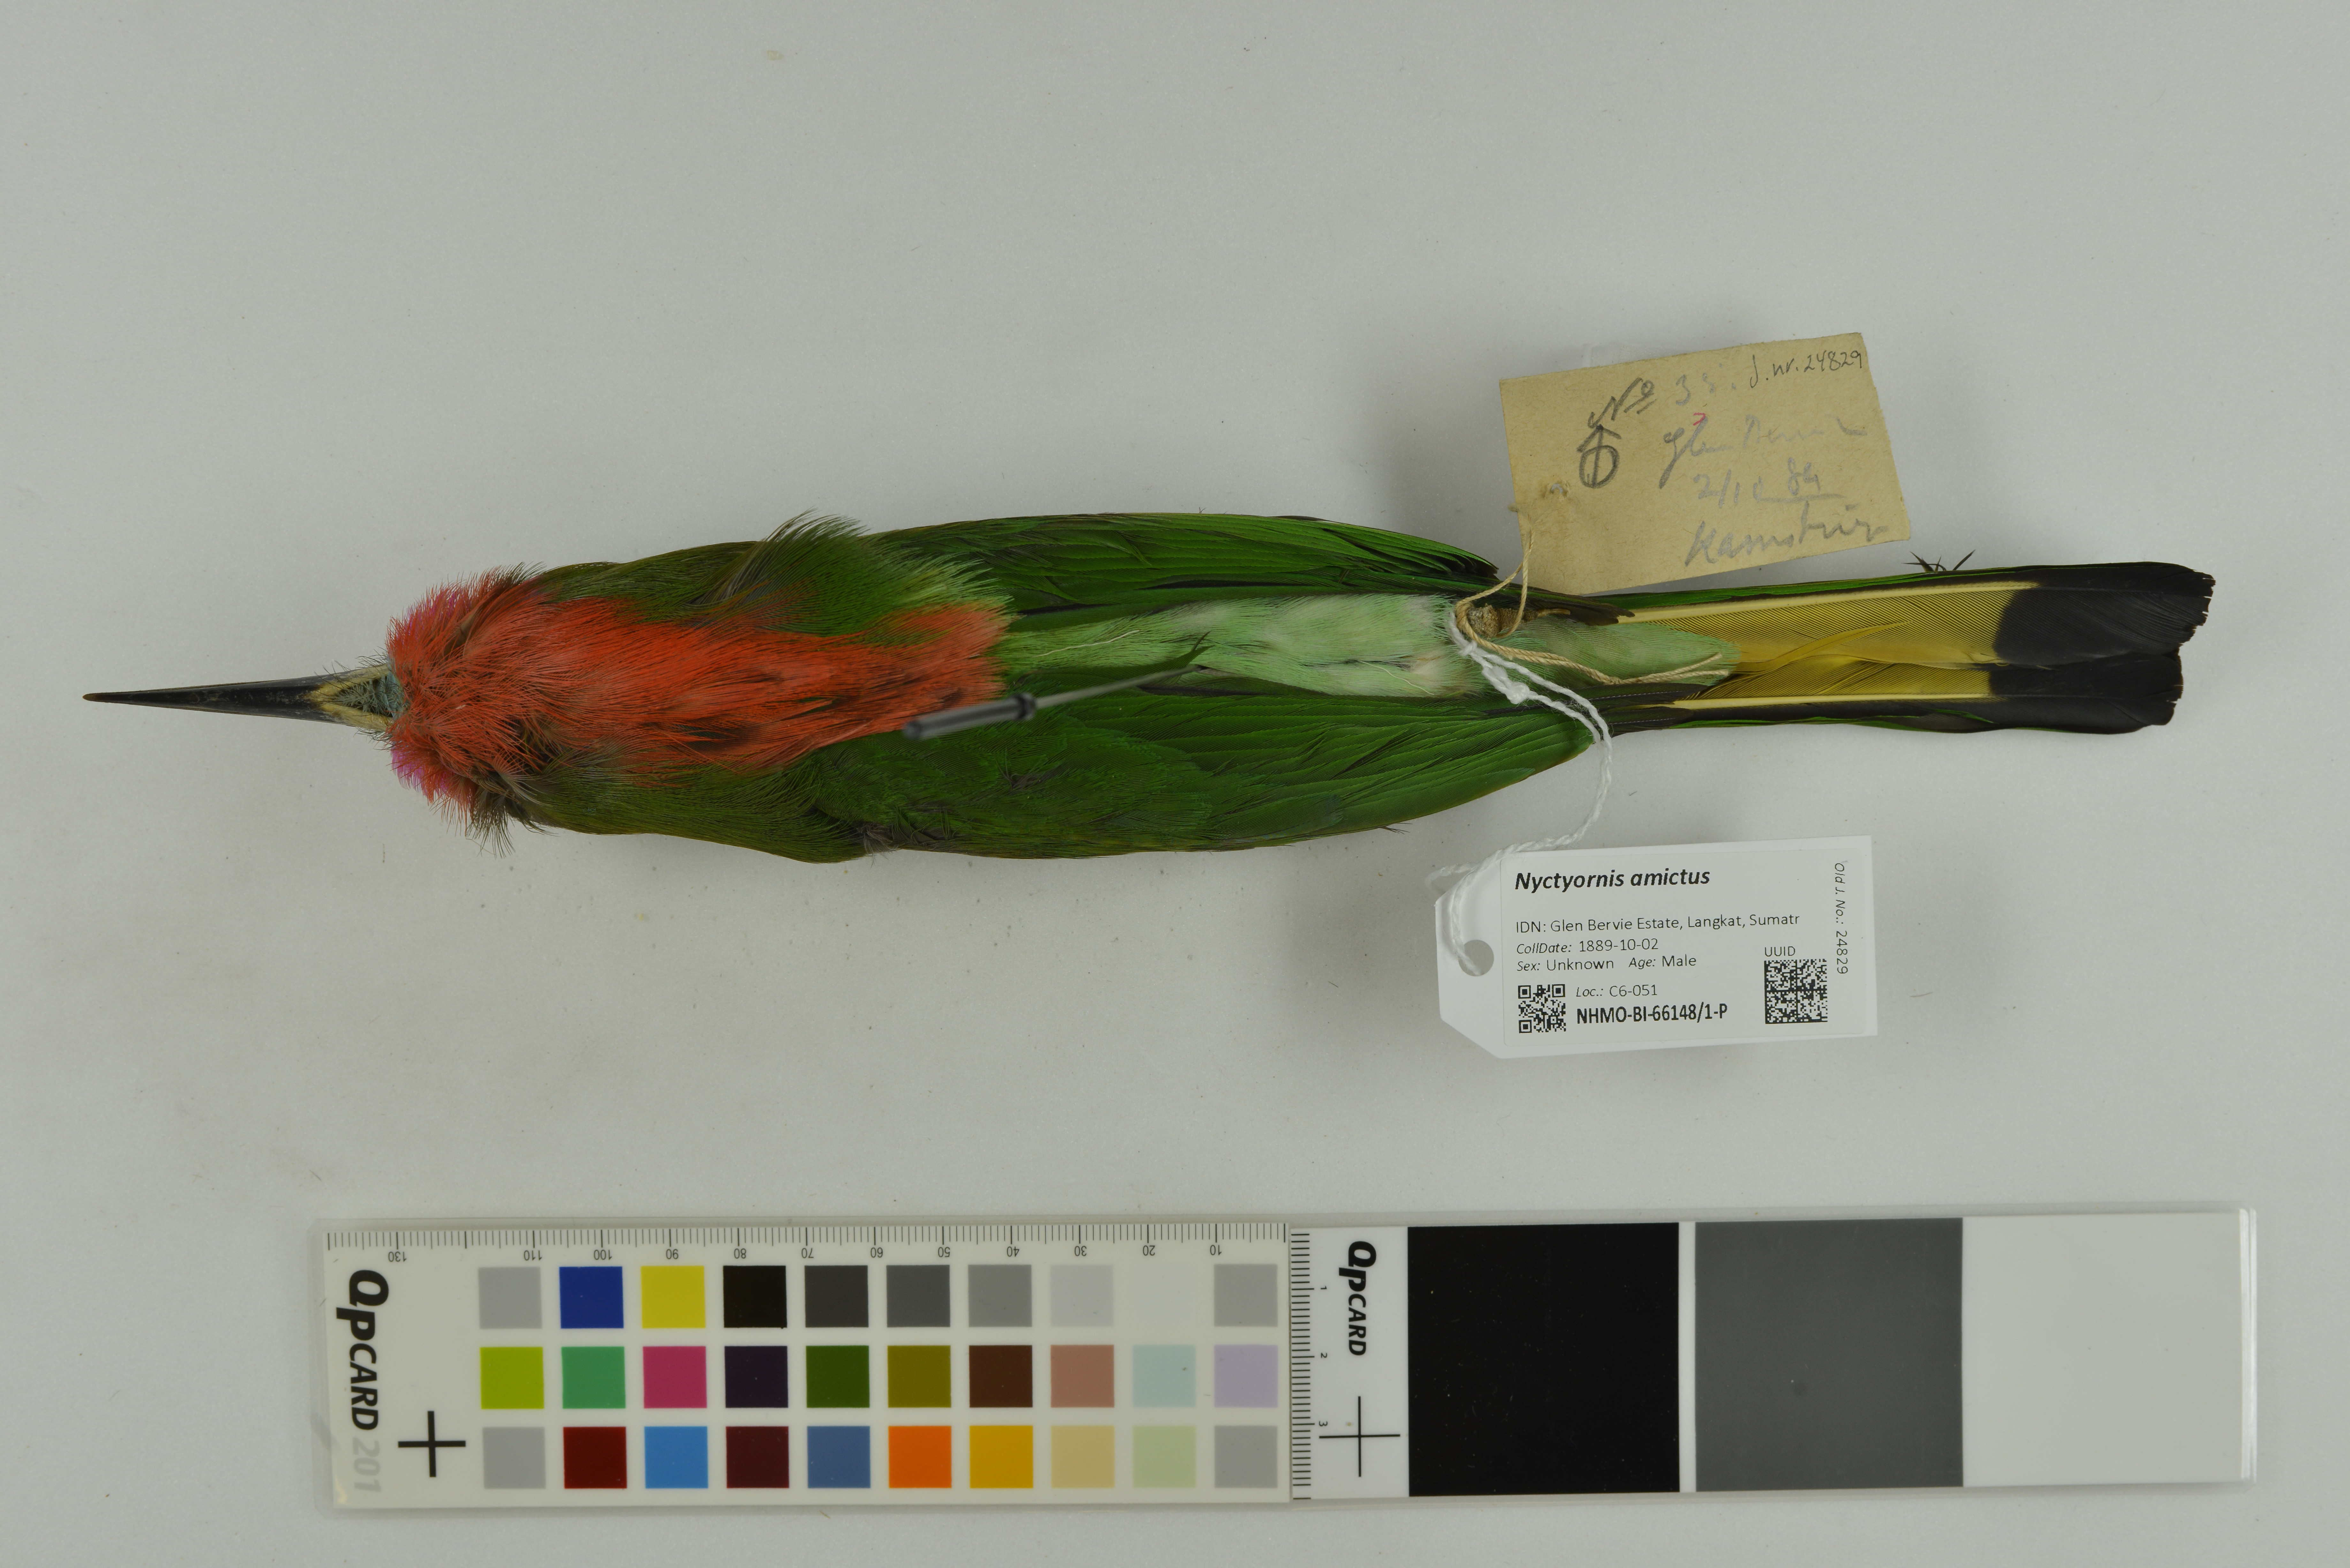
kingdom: Animalia
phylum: Chordata
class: Aves
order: Coraciiformes
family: Meropidae
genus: Nyctyornis
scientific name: Nyctyornis amictus
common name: Red-bearded bee-eater
